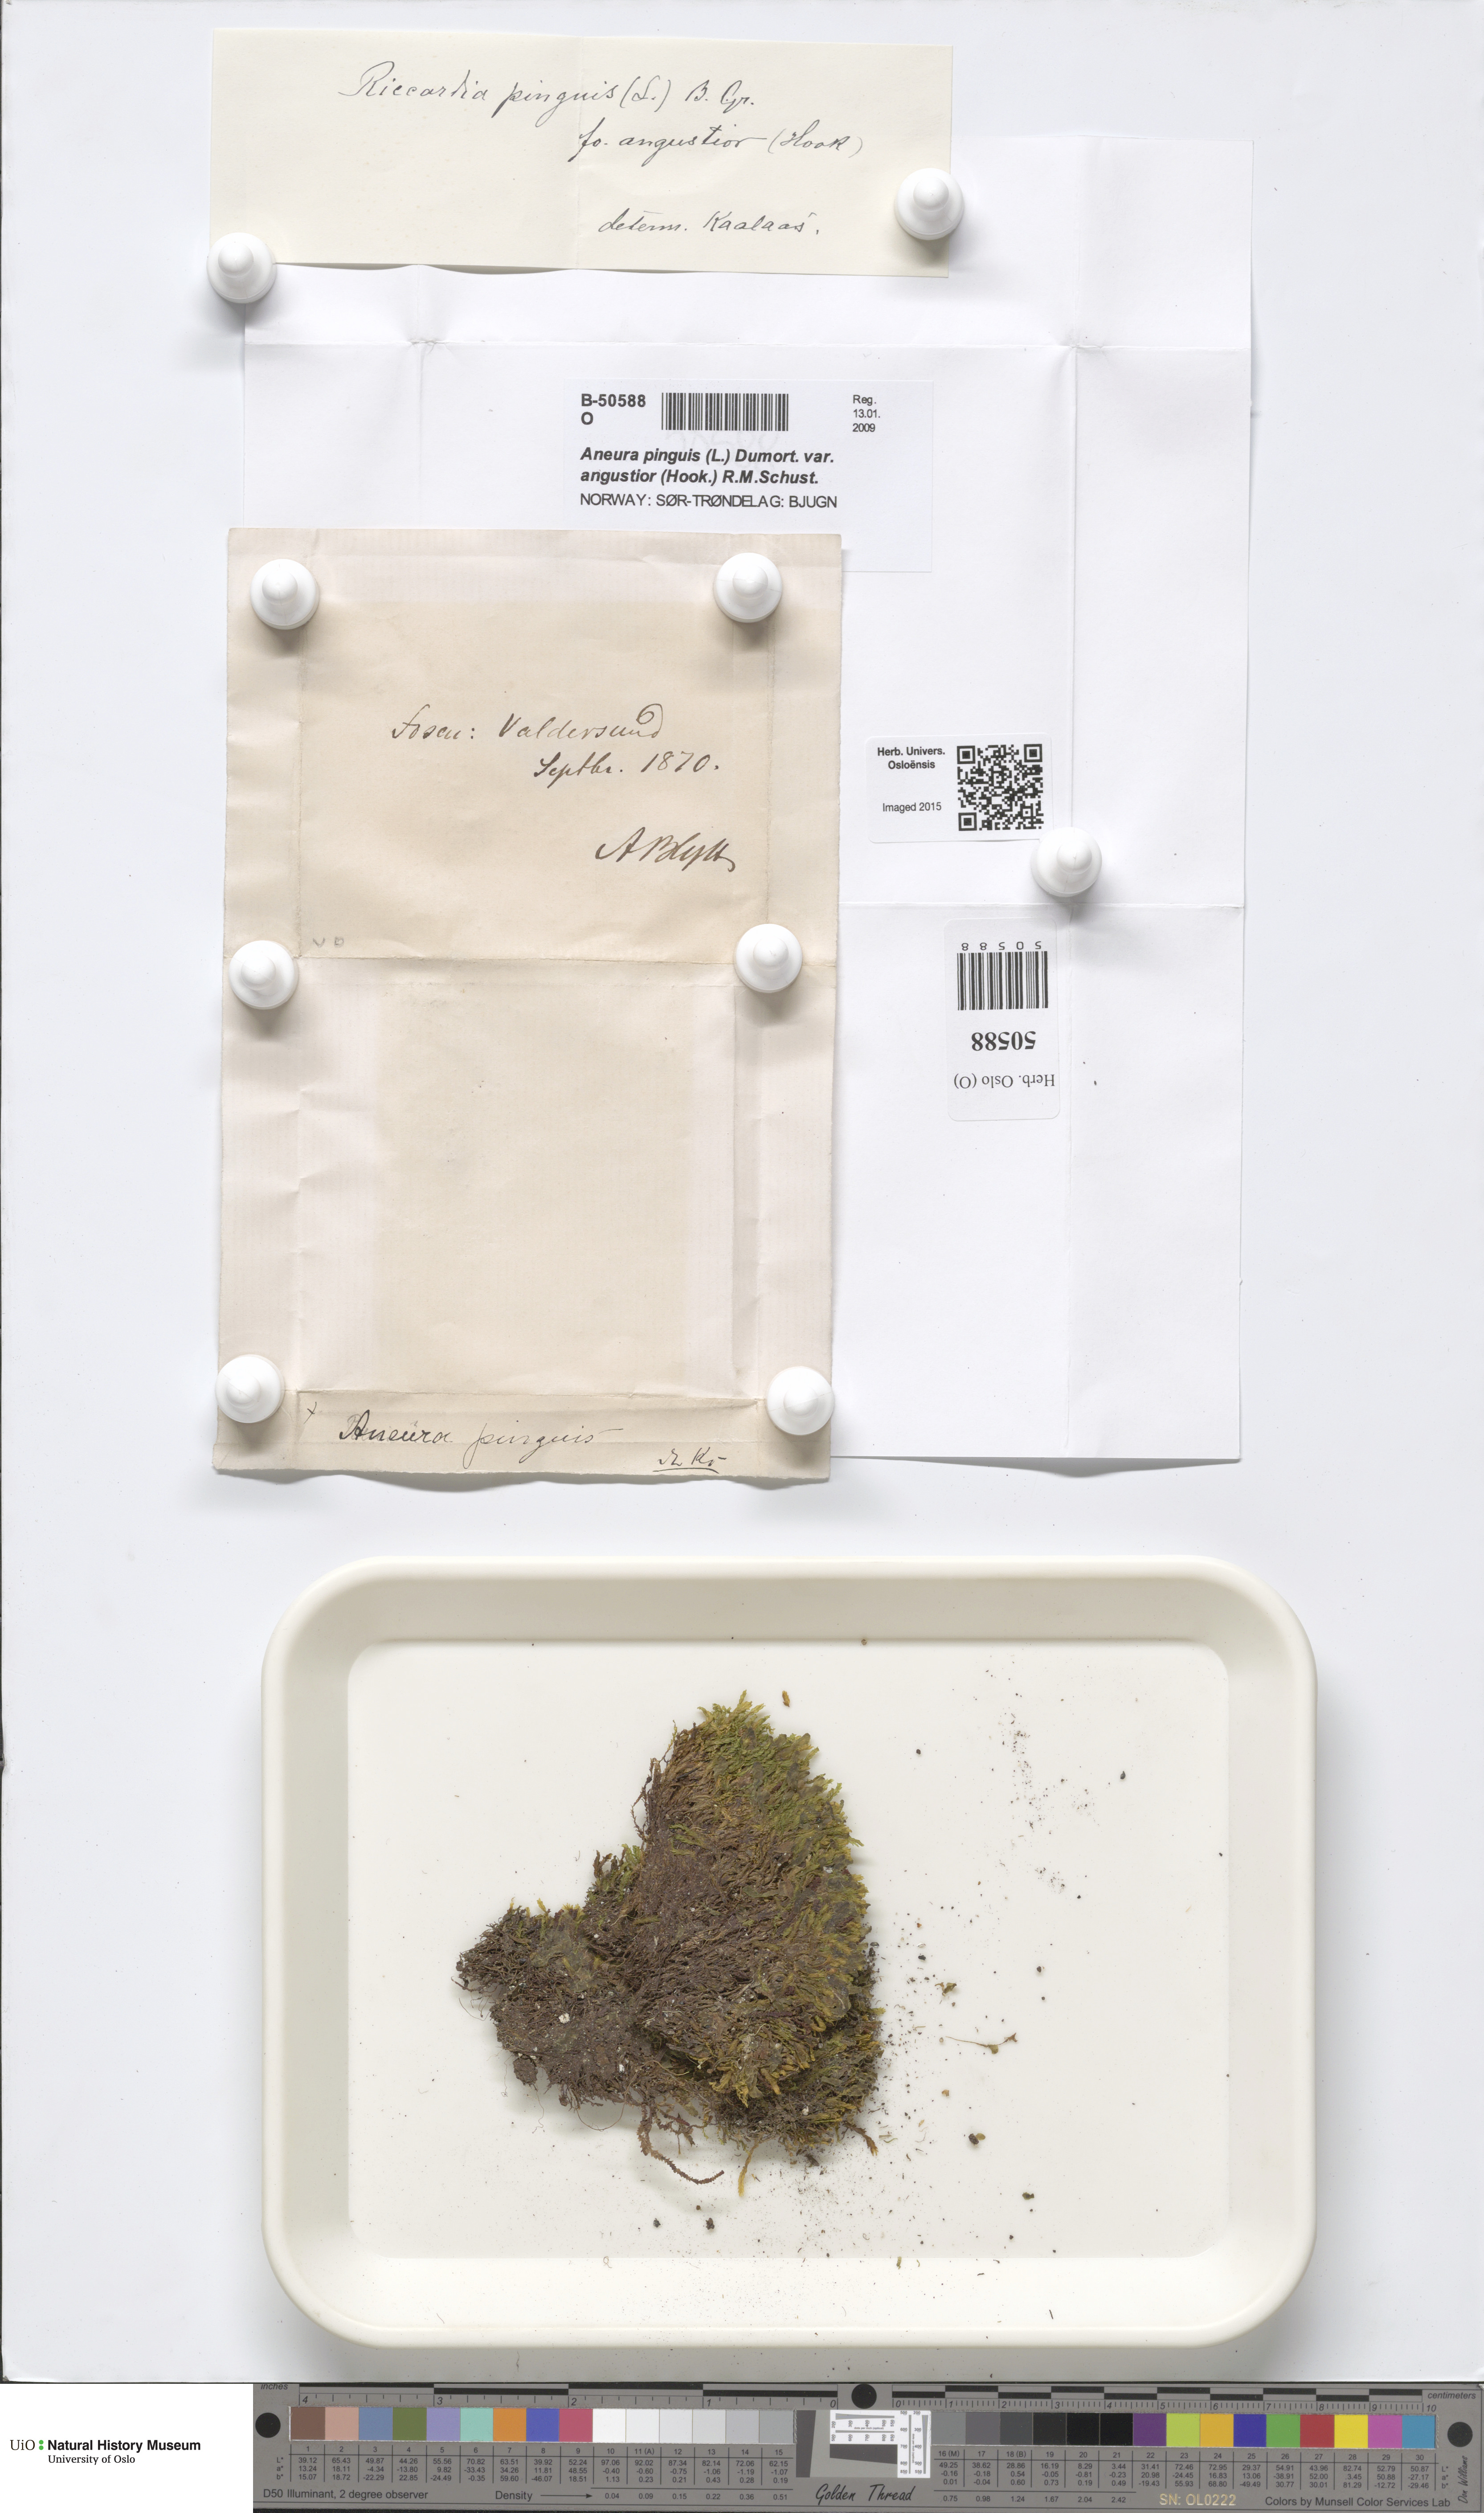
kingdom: Plantae
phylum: Marchantiophyta
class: Jungermanniopsida
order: Metzgeriales
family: Aneuraceae
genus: Aneura
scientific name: Aneura pinguis
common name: Common greasewort
